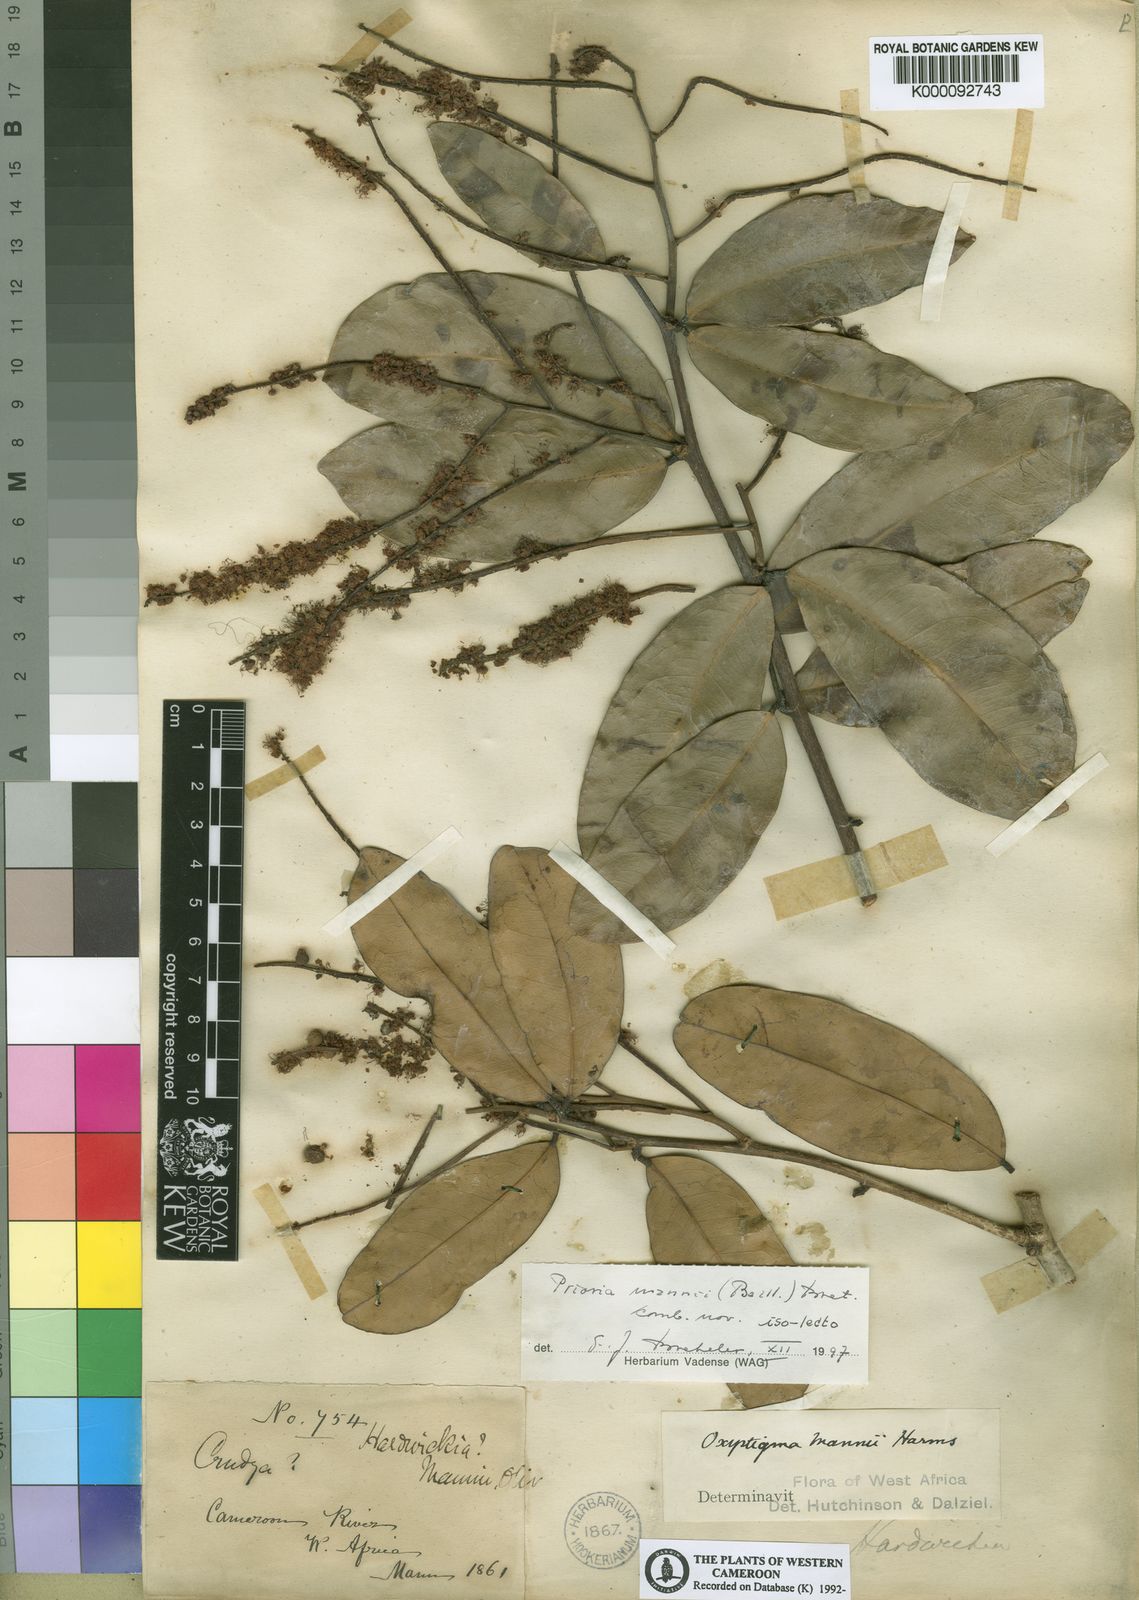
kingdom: Plantae
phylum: Tracheophyta
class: Magnoliopsida
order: Fabales
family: Fabaceae
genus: Prioria
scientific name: Prioria mannii
